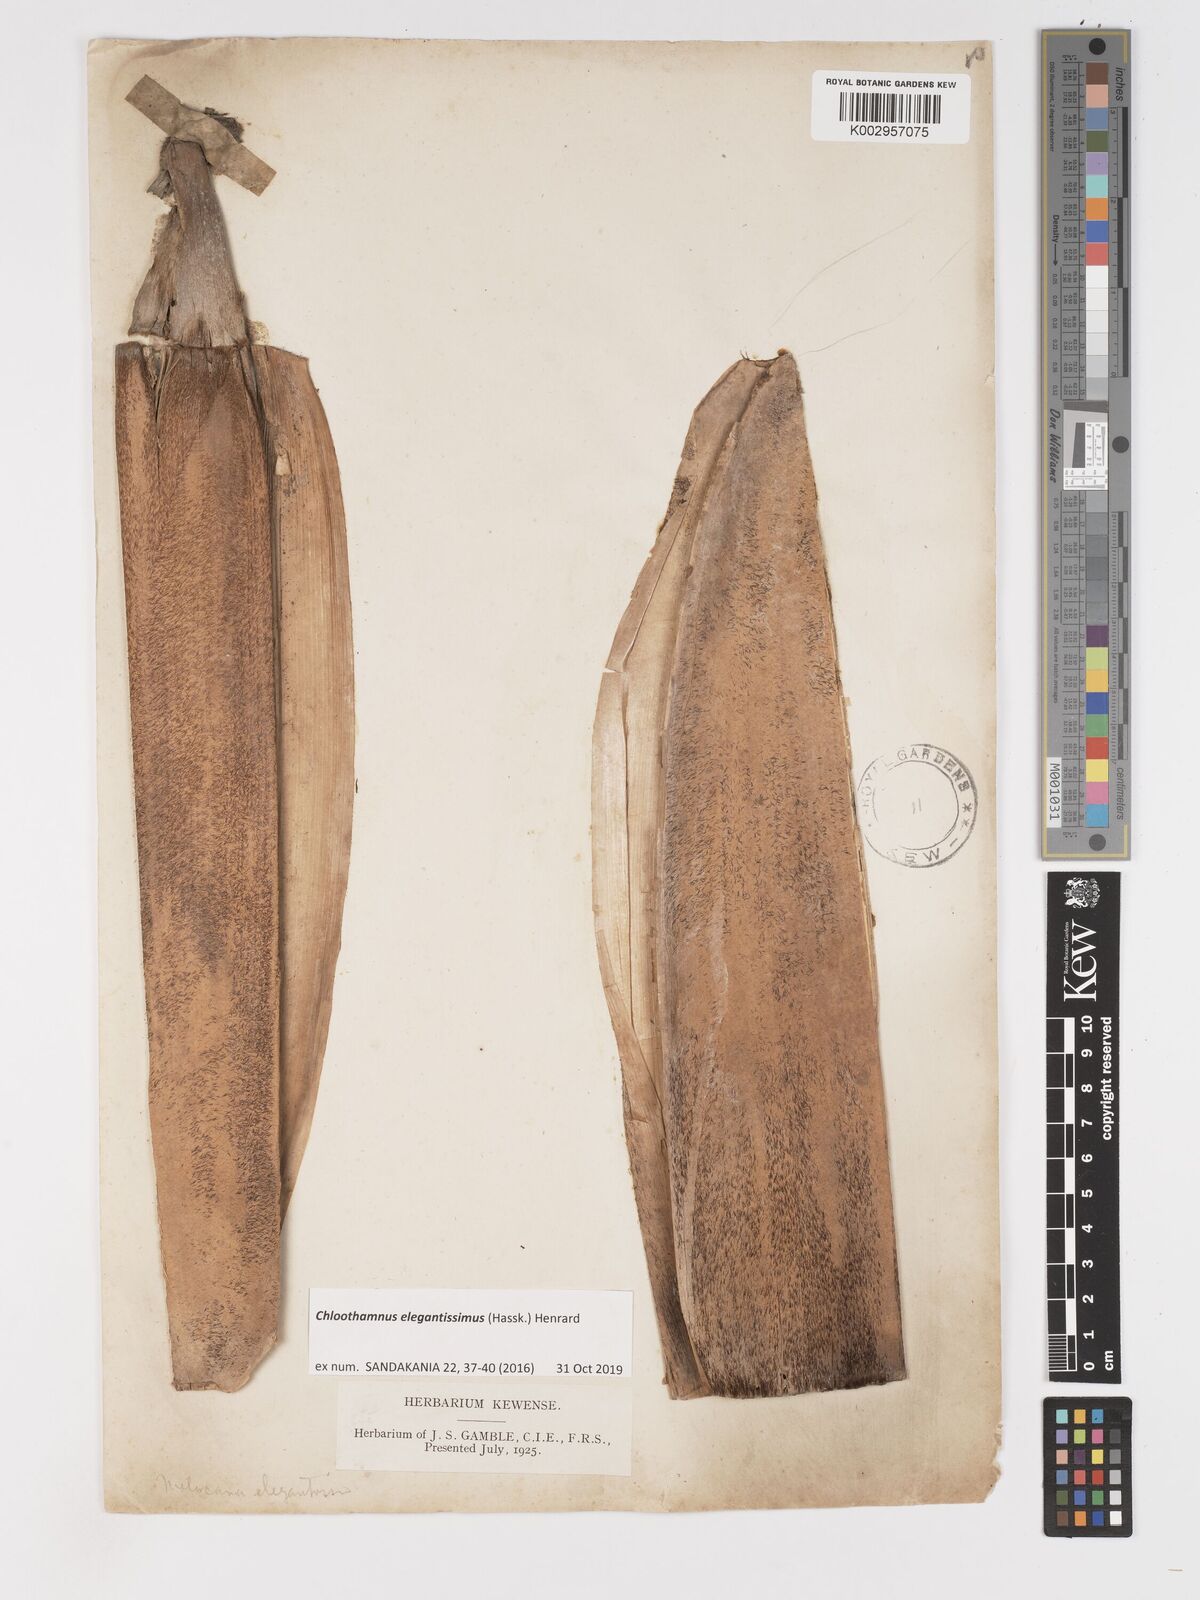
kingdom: Plantae
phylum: Tracheophyta
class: Liliopsida
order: Poales
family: Poaceae
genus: Chloothamnus
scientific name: Chloothamnus
